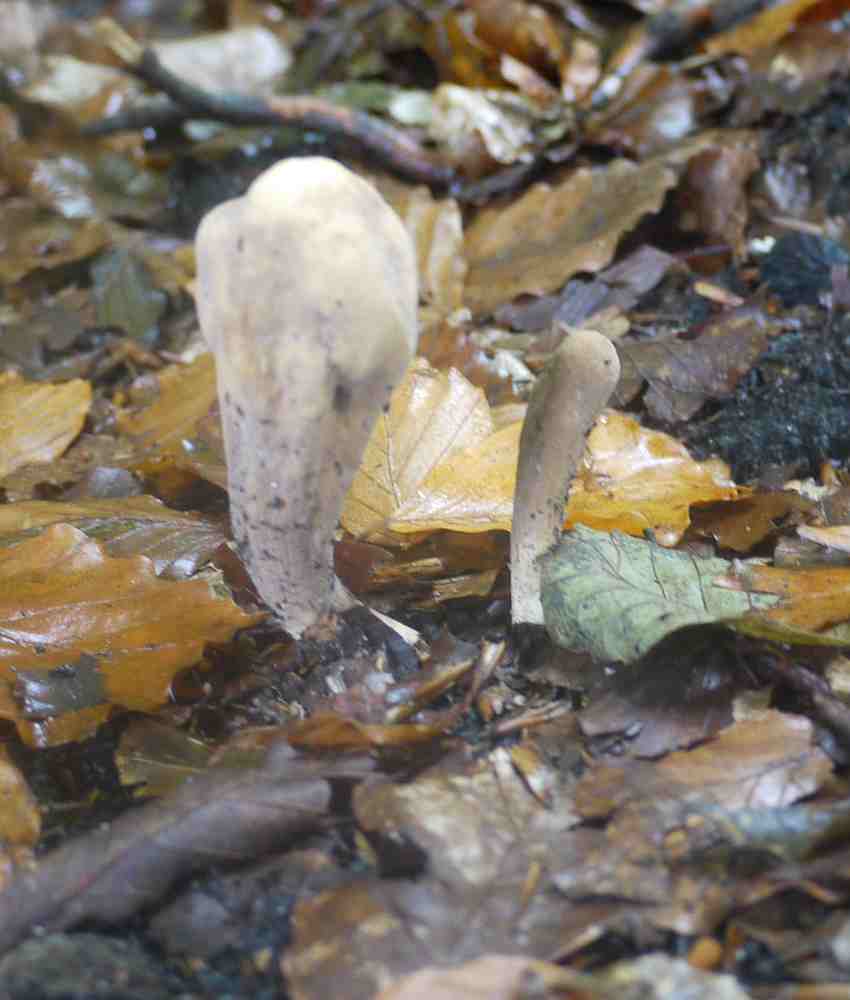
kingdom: Fungi
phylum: Basidiomycota
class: Agaricomycetes
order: Gomphales
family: Clavariadelphaceae
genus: Clavariadelphus
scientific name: Clavariadelphus pistillaris
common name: herkules-kæmpekølle
